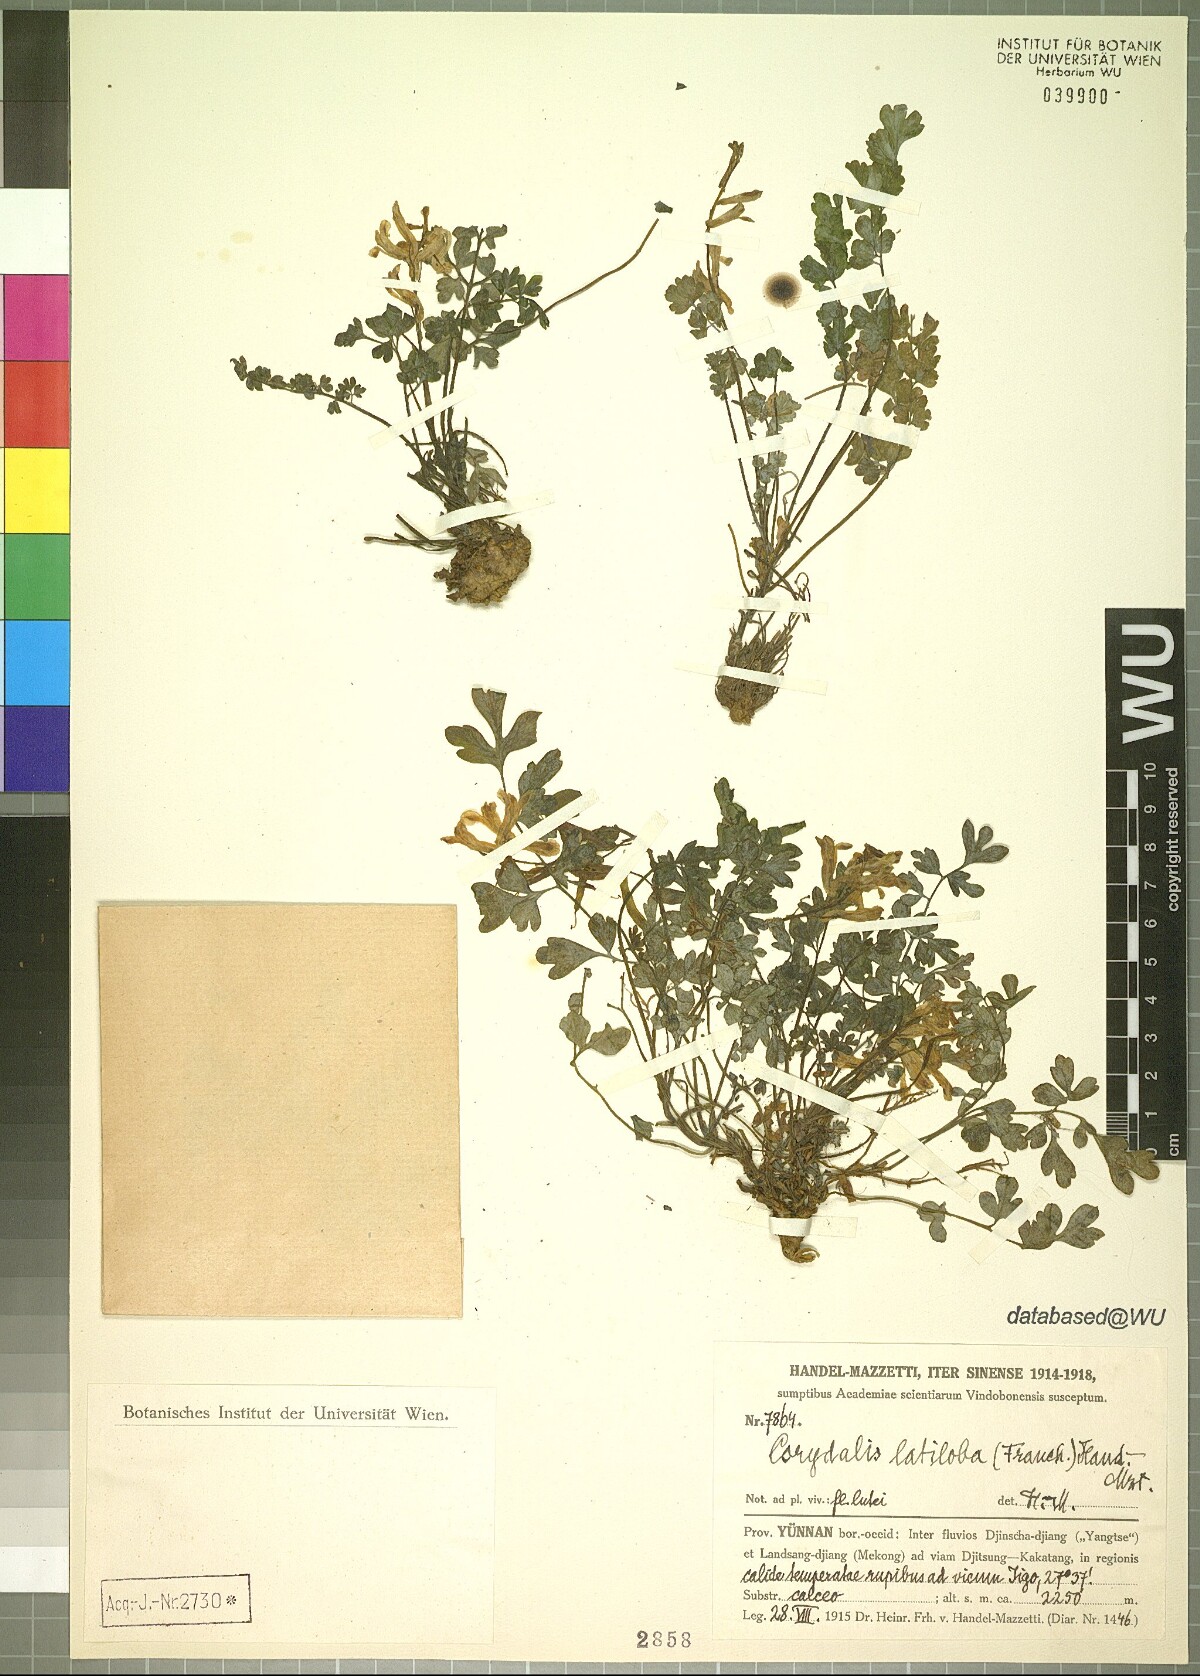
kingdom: Plantae
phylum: Tracheophyta
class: Magnoliopsida
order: Ranunculales
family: Papaveraceae
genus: Corydalis
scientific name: Corydalis latiloba
